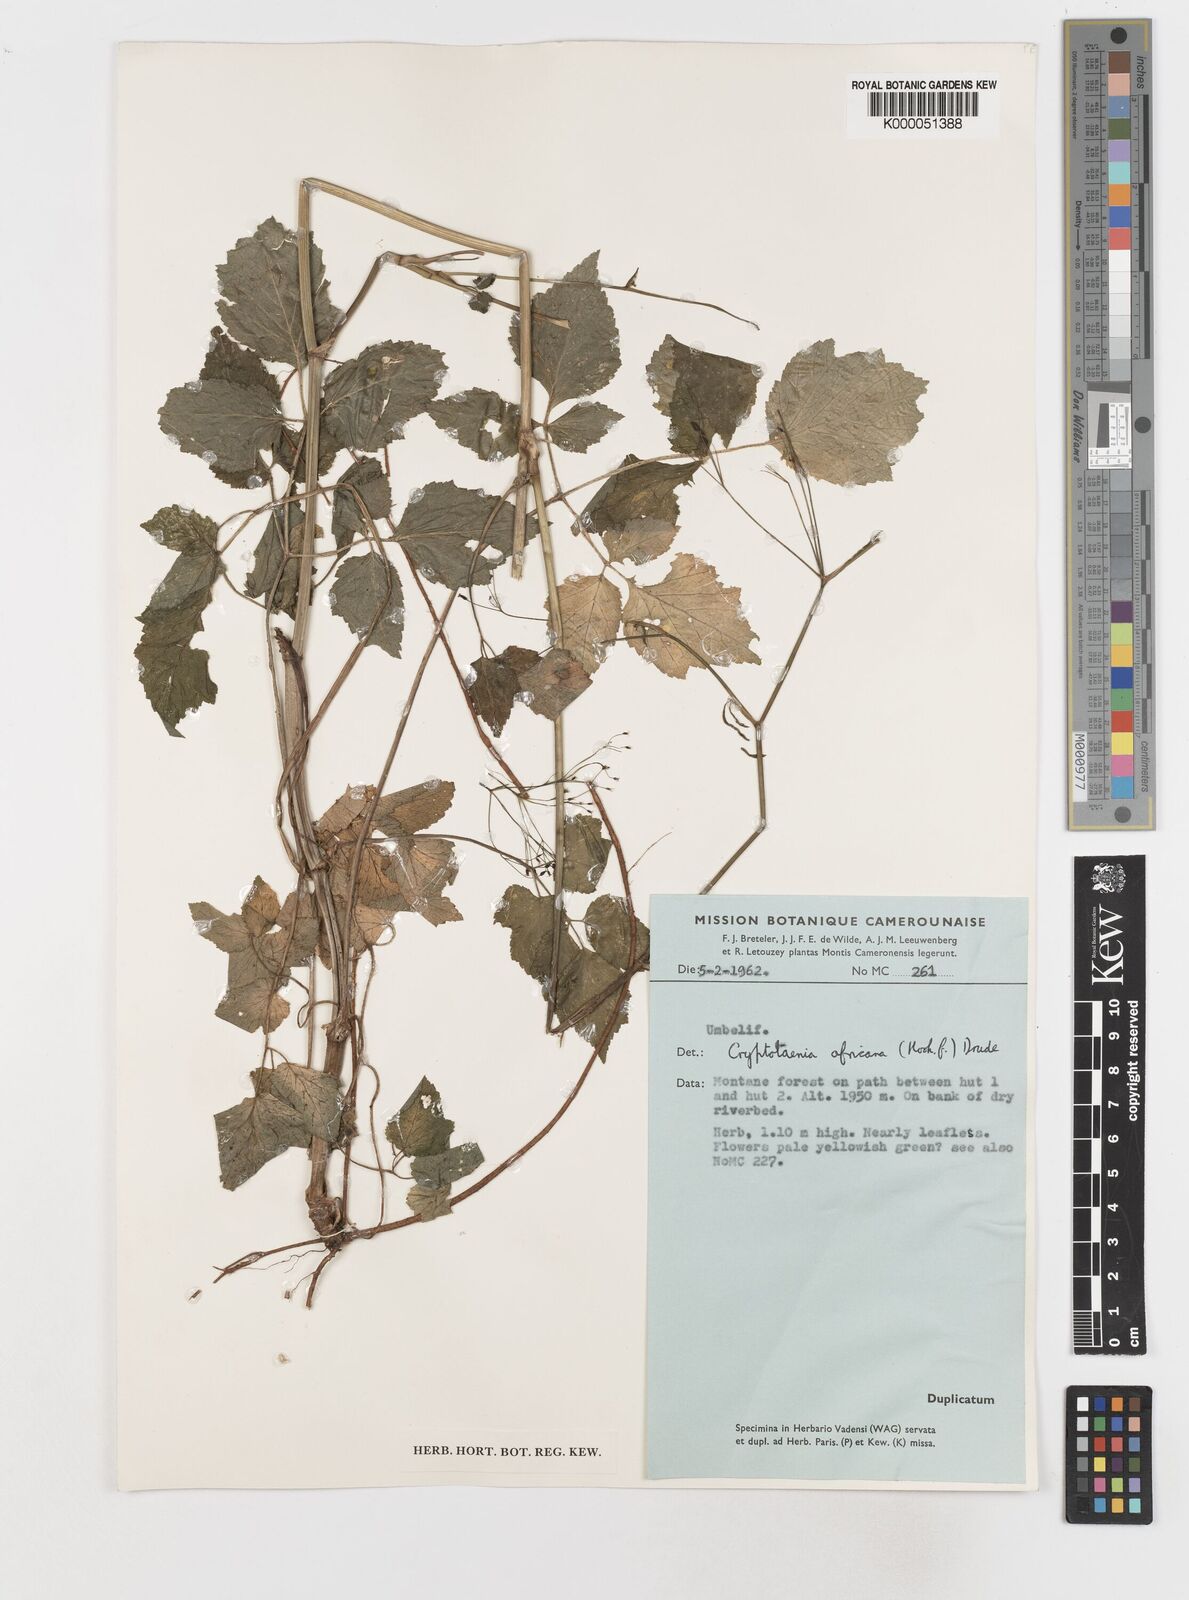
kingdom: Plantae
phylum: Tracheophyta
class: Magnoliopsida
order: Apiales
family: Apiaceae
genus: Cryptotaenia
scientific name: Cryptotaenia africana
